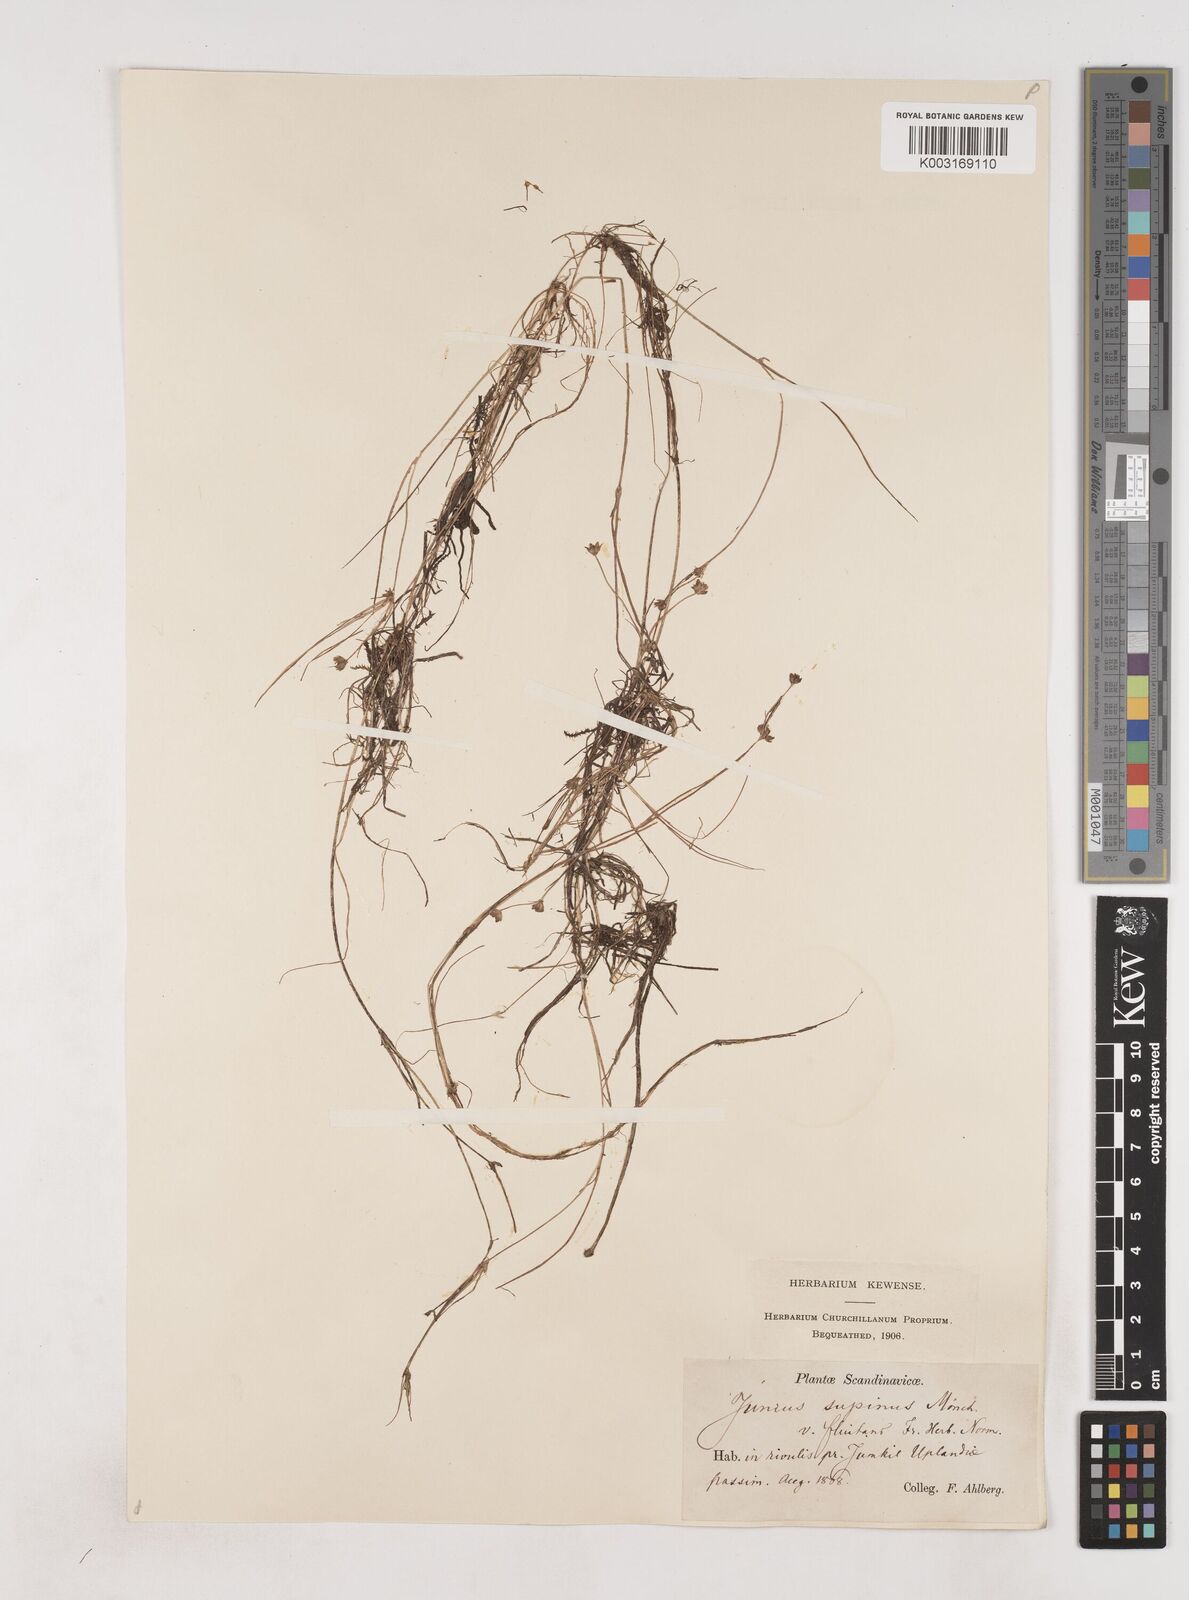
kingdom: Plantae
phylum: Tracheophyta
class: Liliopsida
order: Poales
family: Juncaceae
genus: Juncus
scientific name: Juncus bulbosus
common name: Bulbous rush
